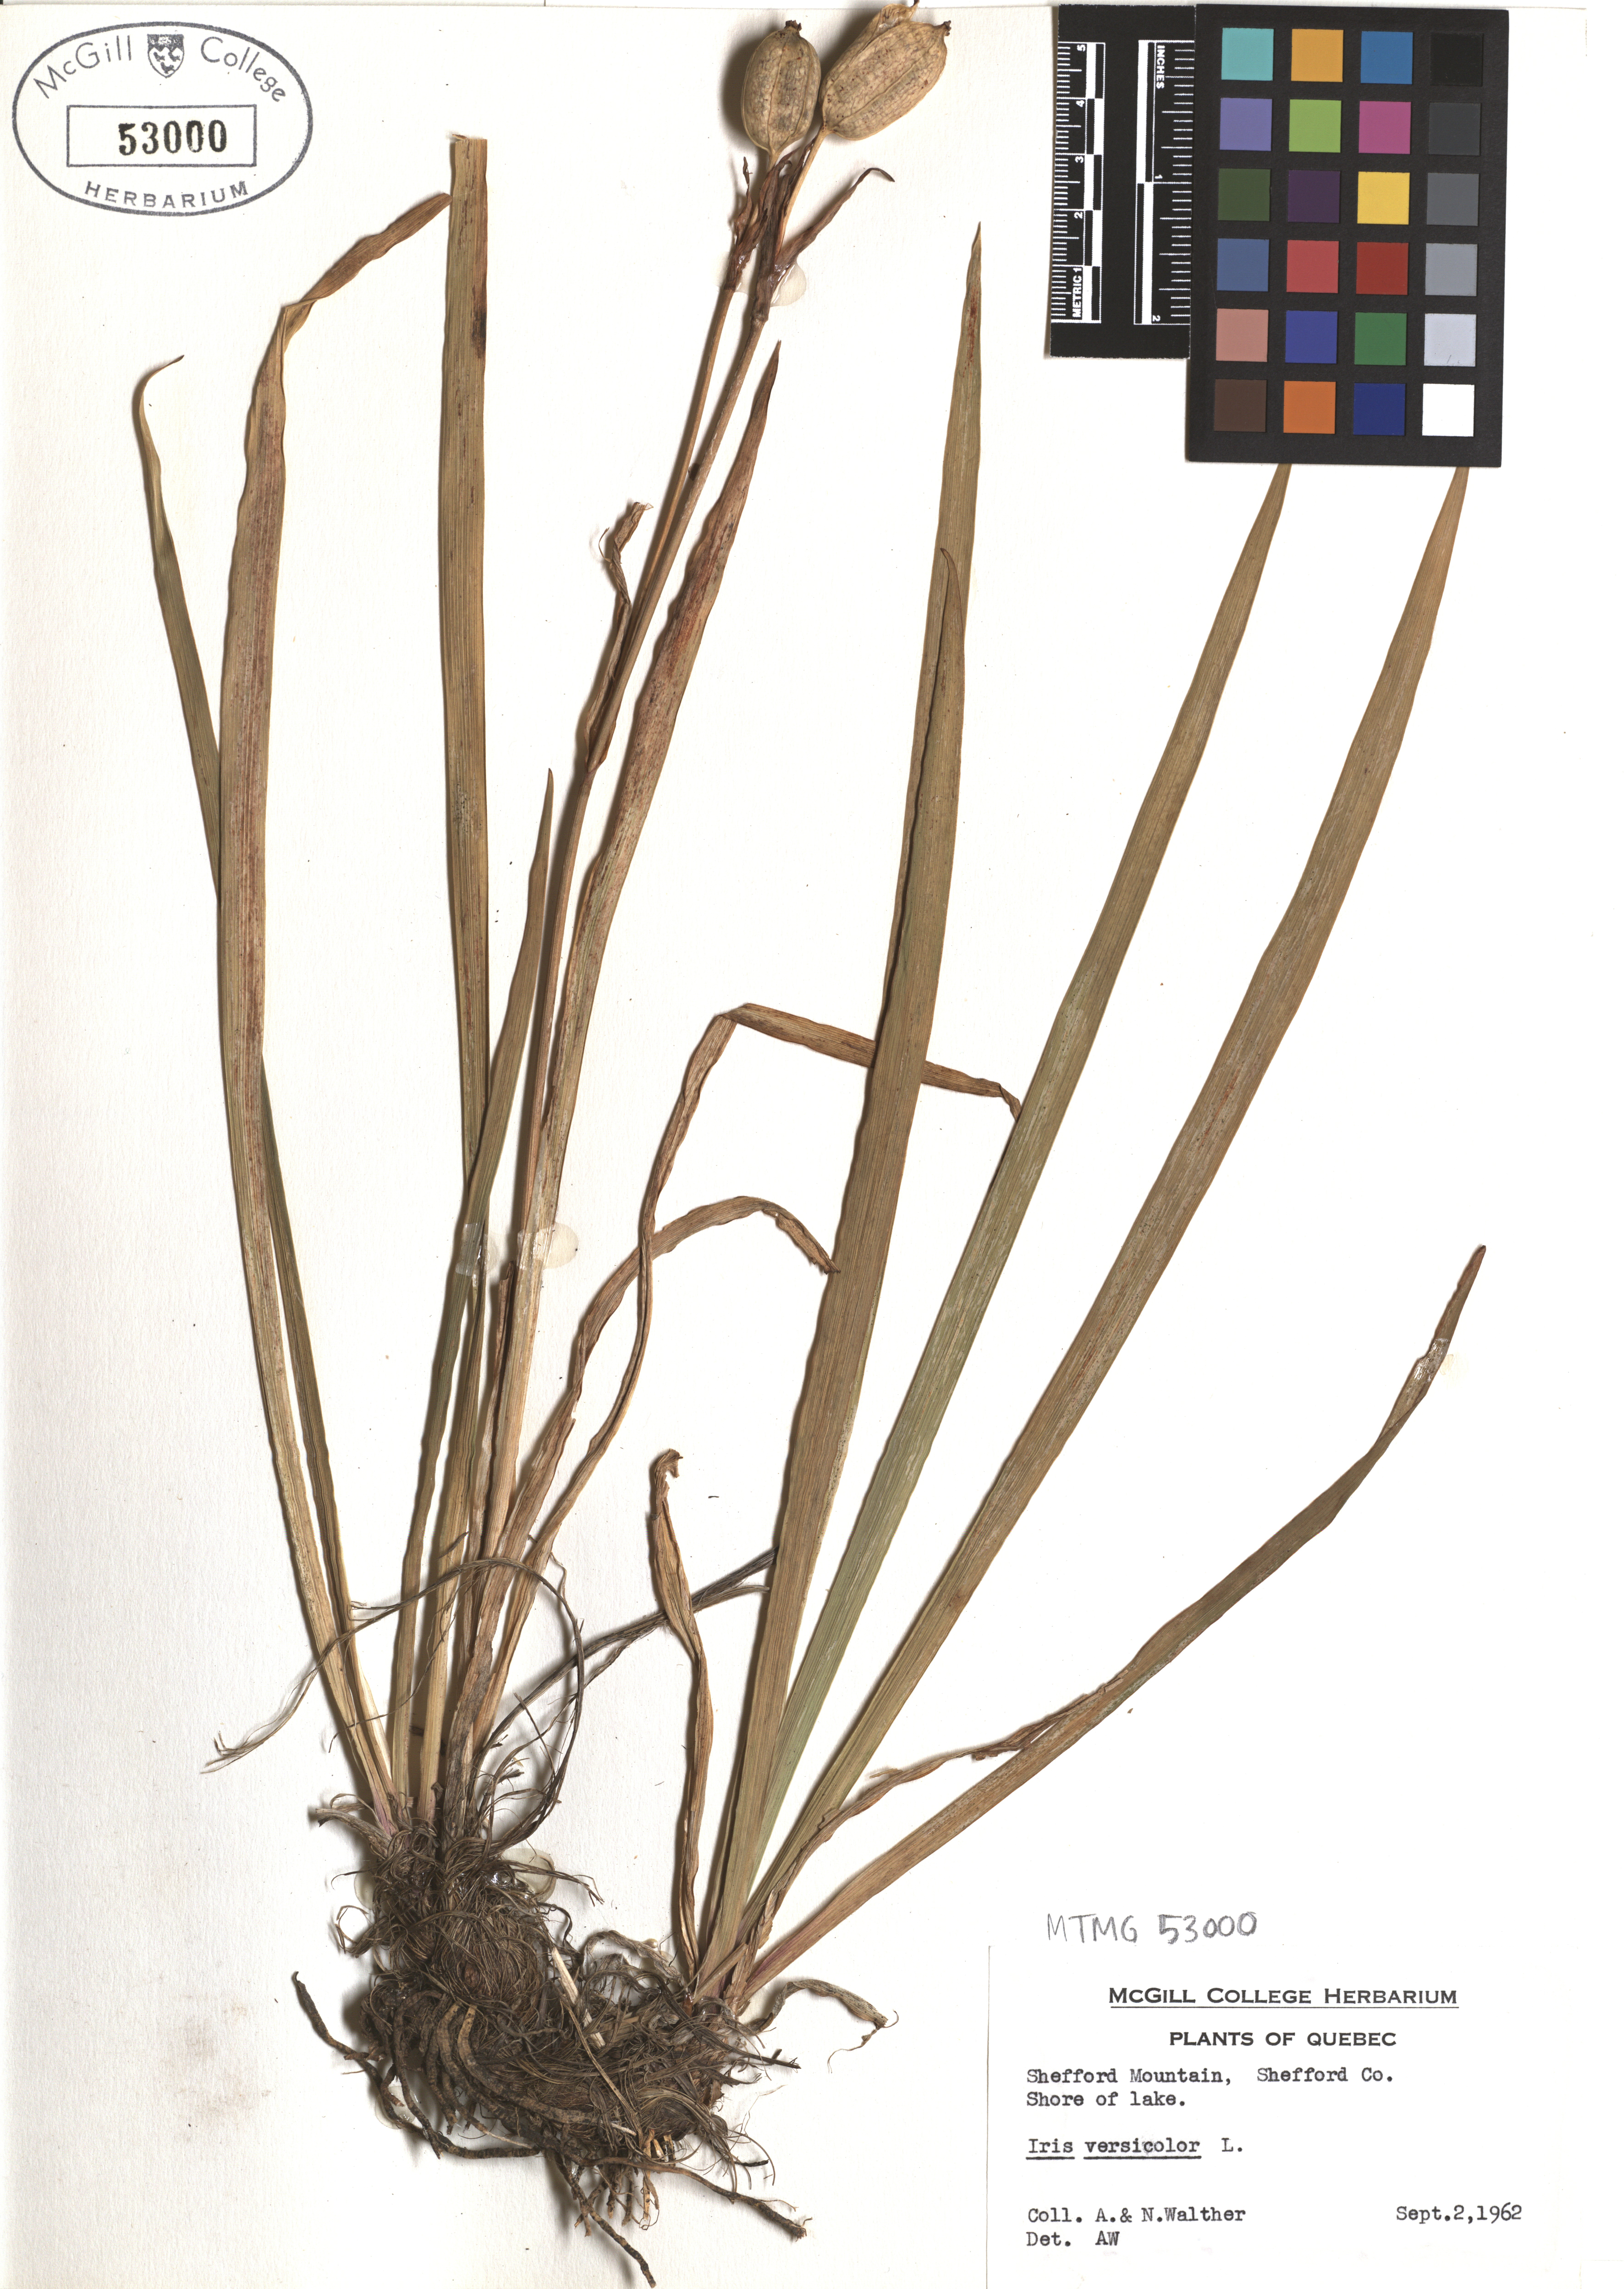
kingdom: Plantae
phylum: Tracheophyta
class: Liliopsida
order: Asparagales
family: Iridaceae
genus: Iris
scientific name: Iris versicolor
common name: Purple iris
